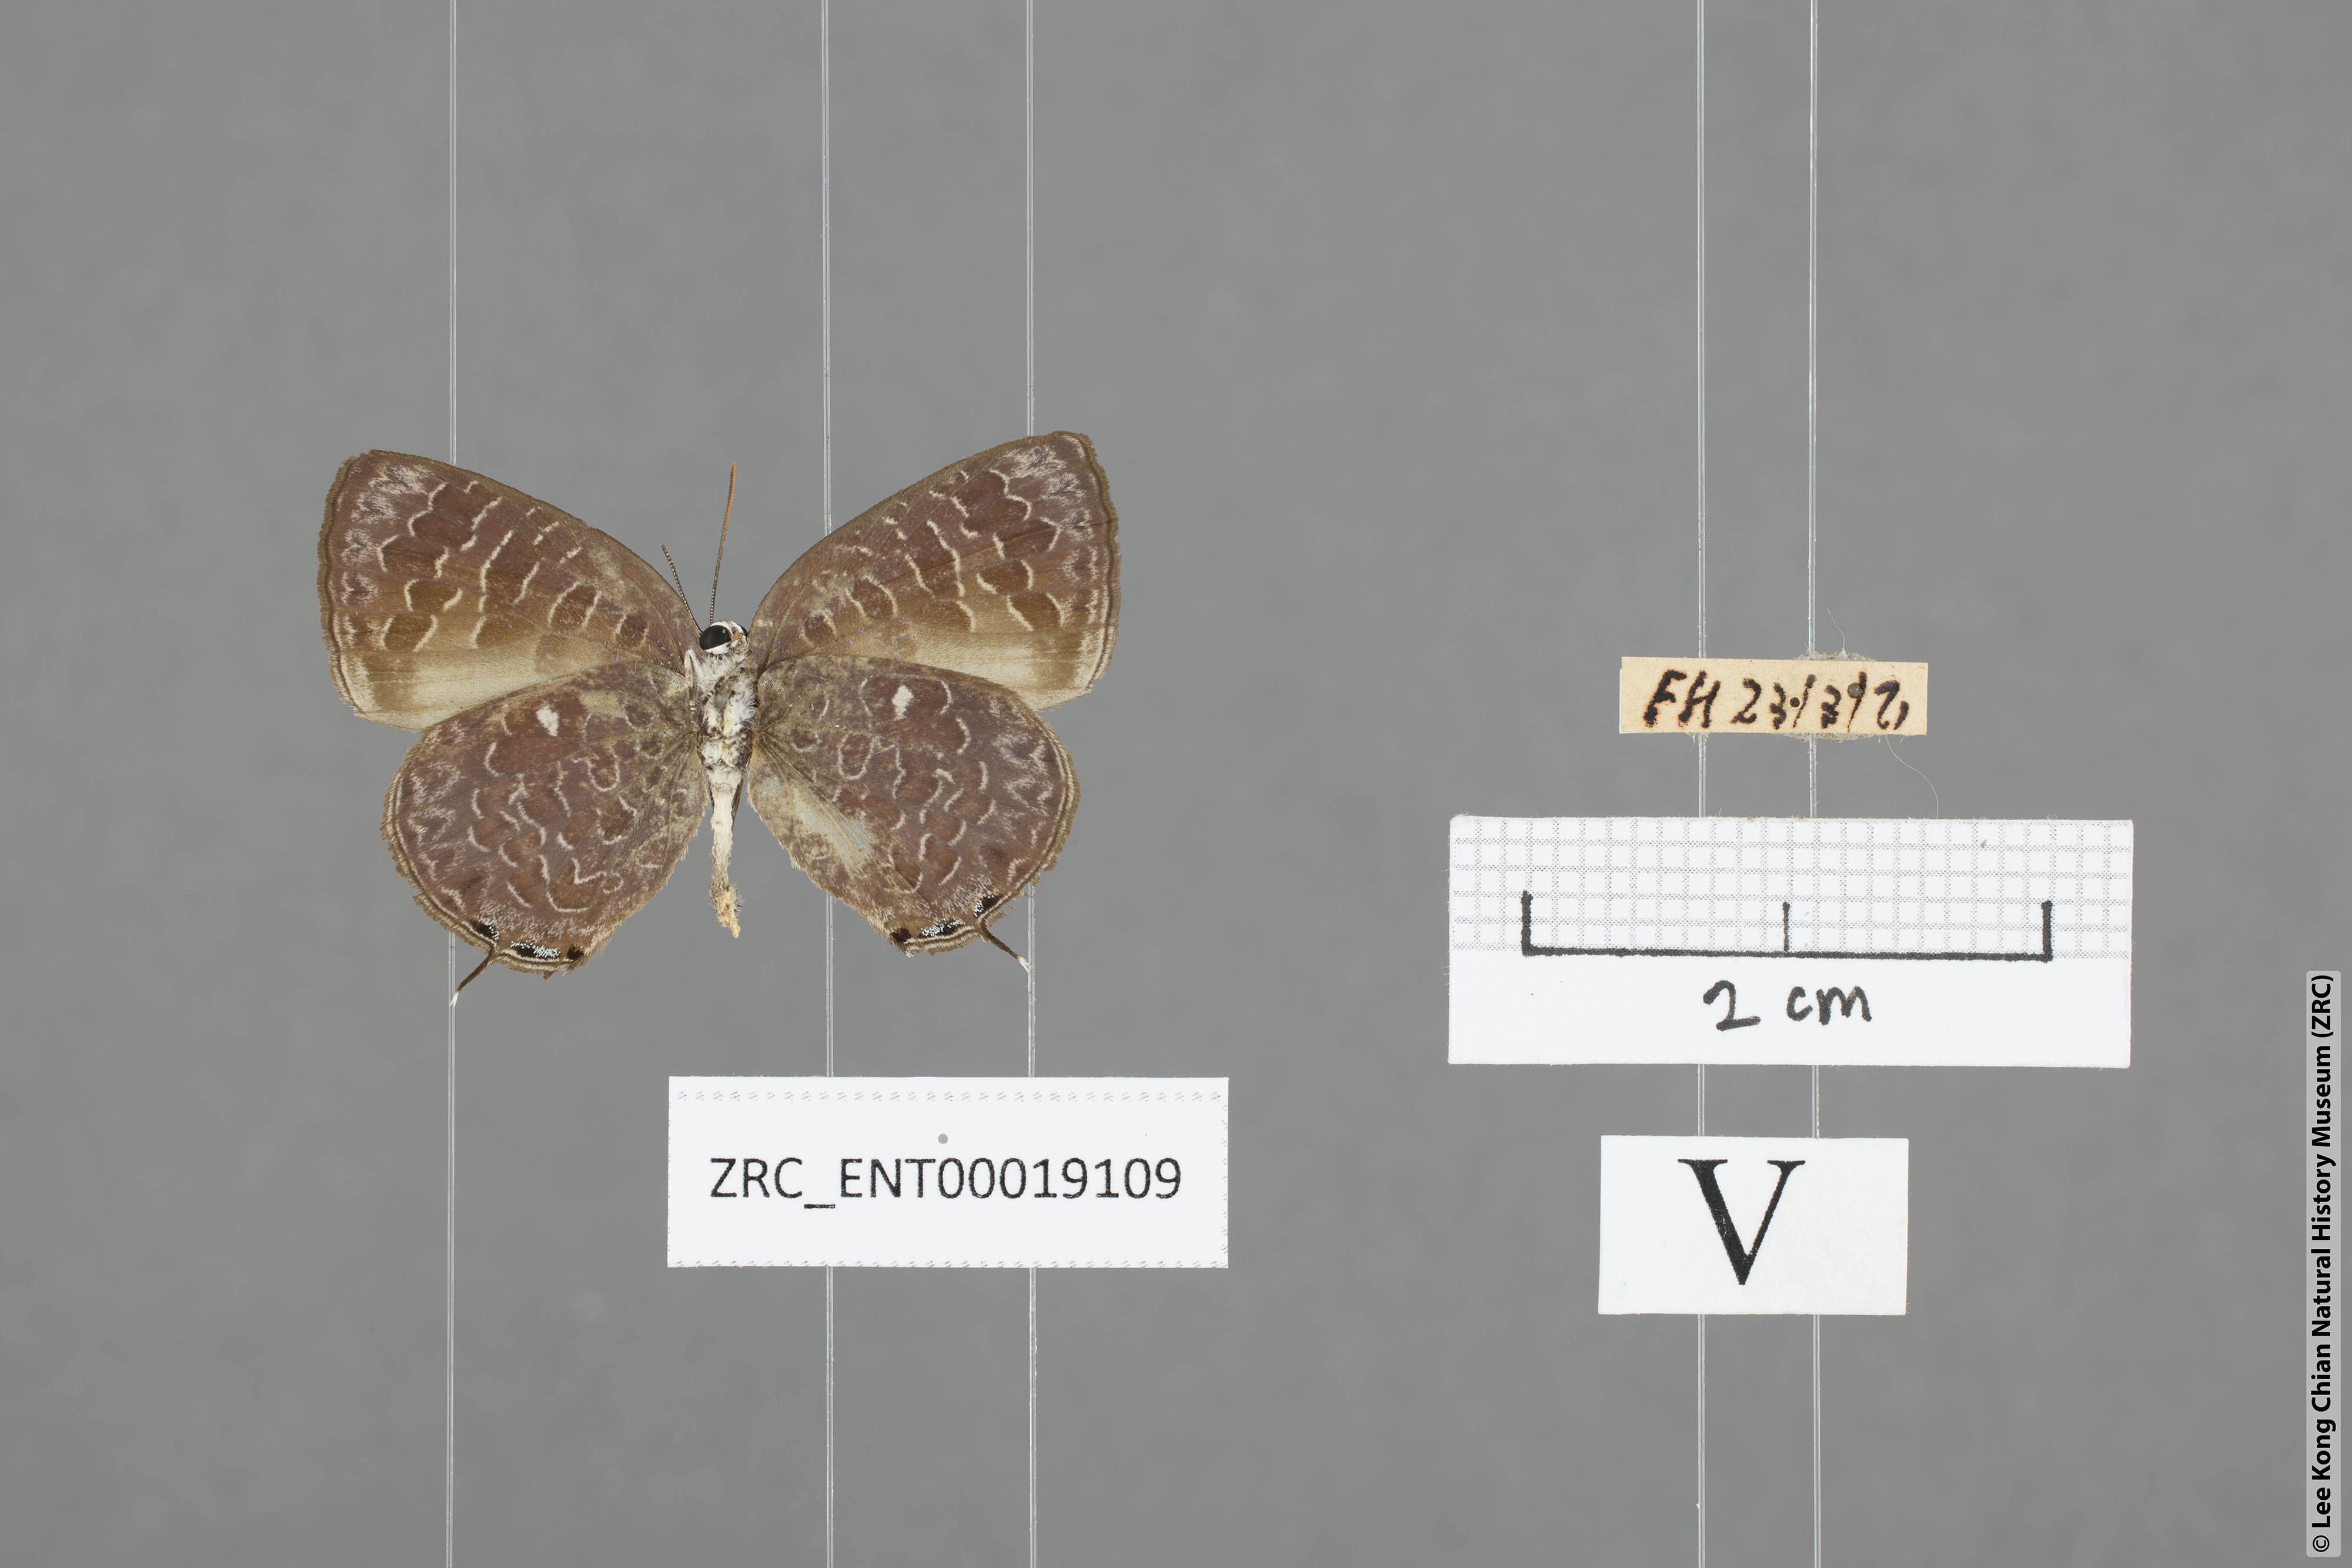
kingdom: Animalia
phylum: Arthropoda
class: Insecta
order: Lepidoptera
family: Lycaenidae
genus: Arhopala
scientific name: Arhopala ammon
